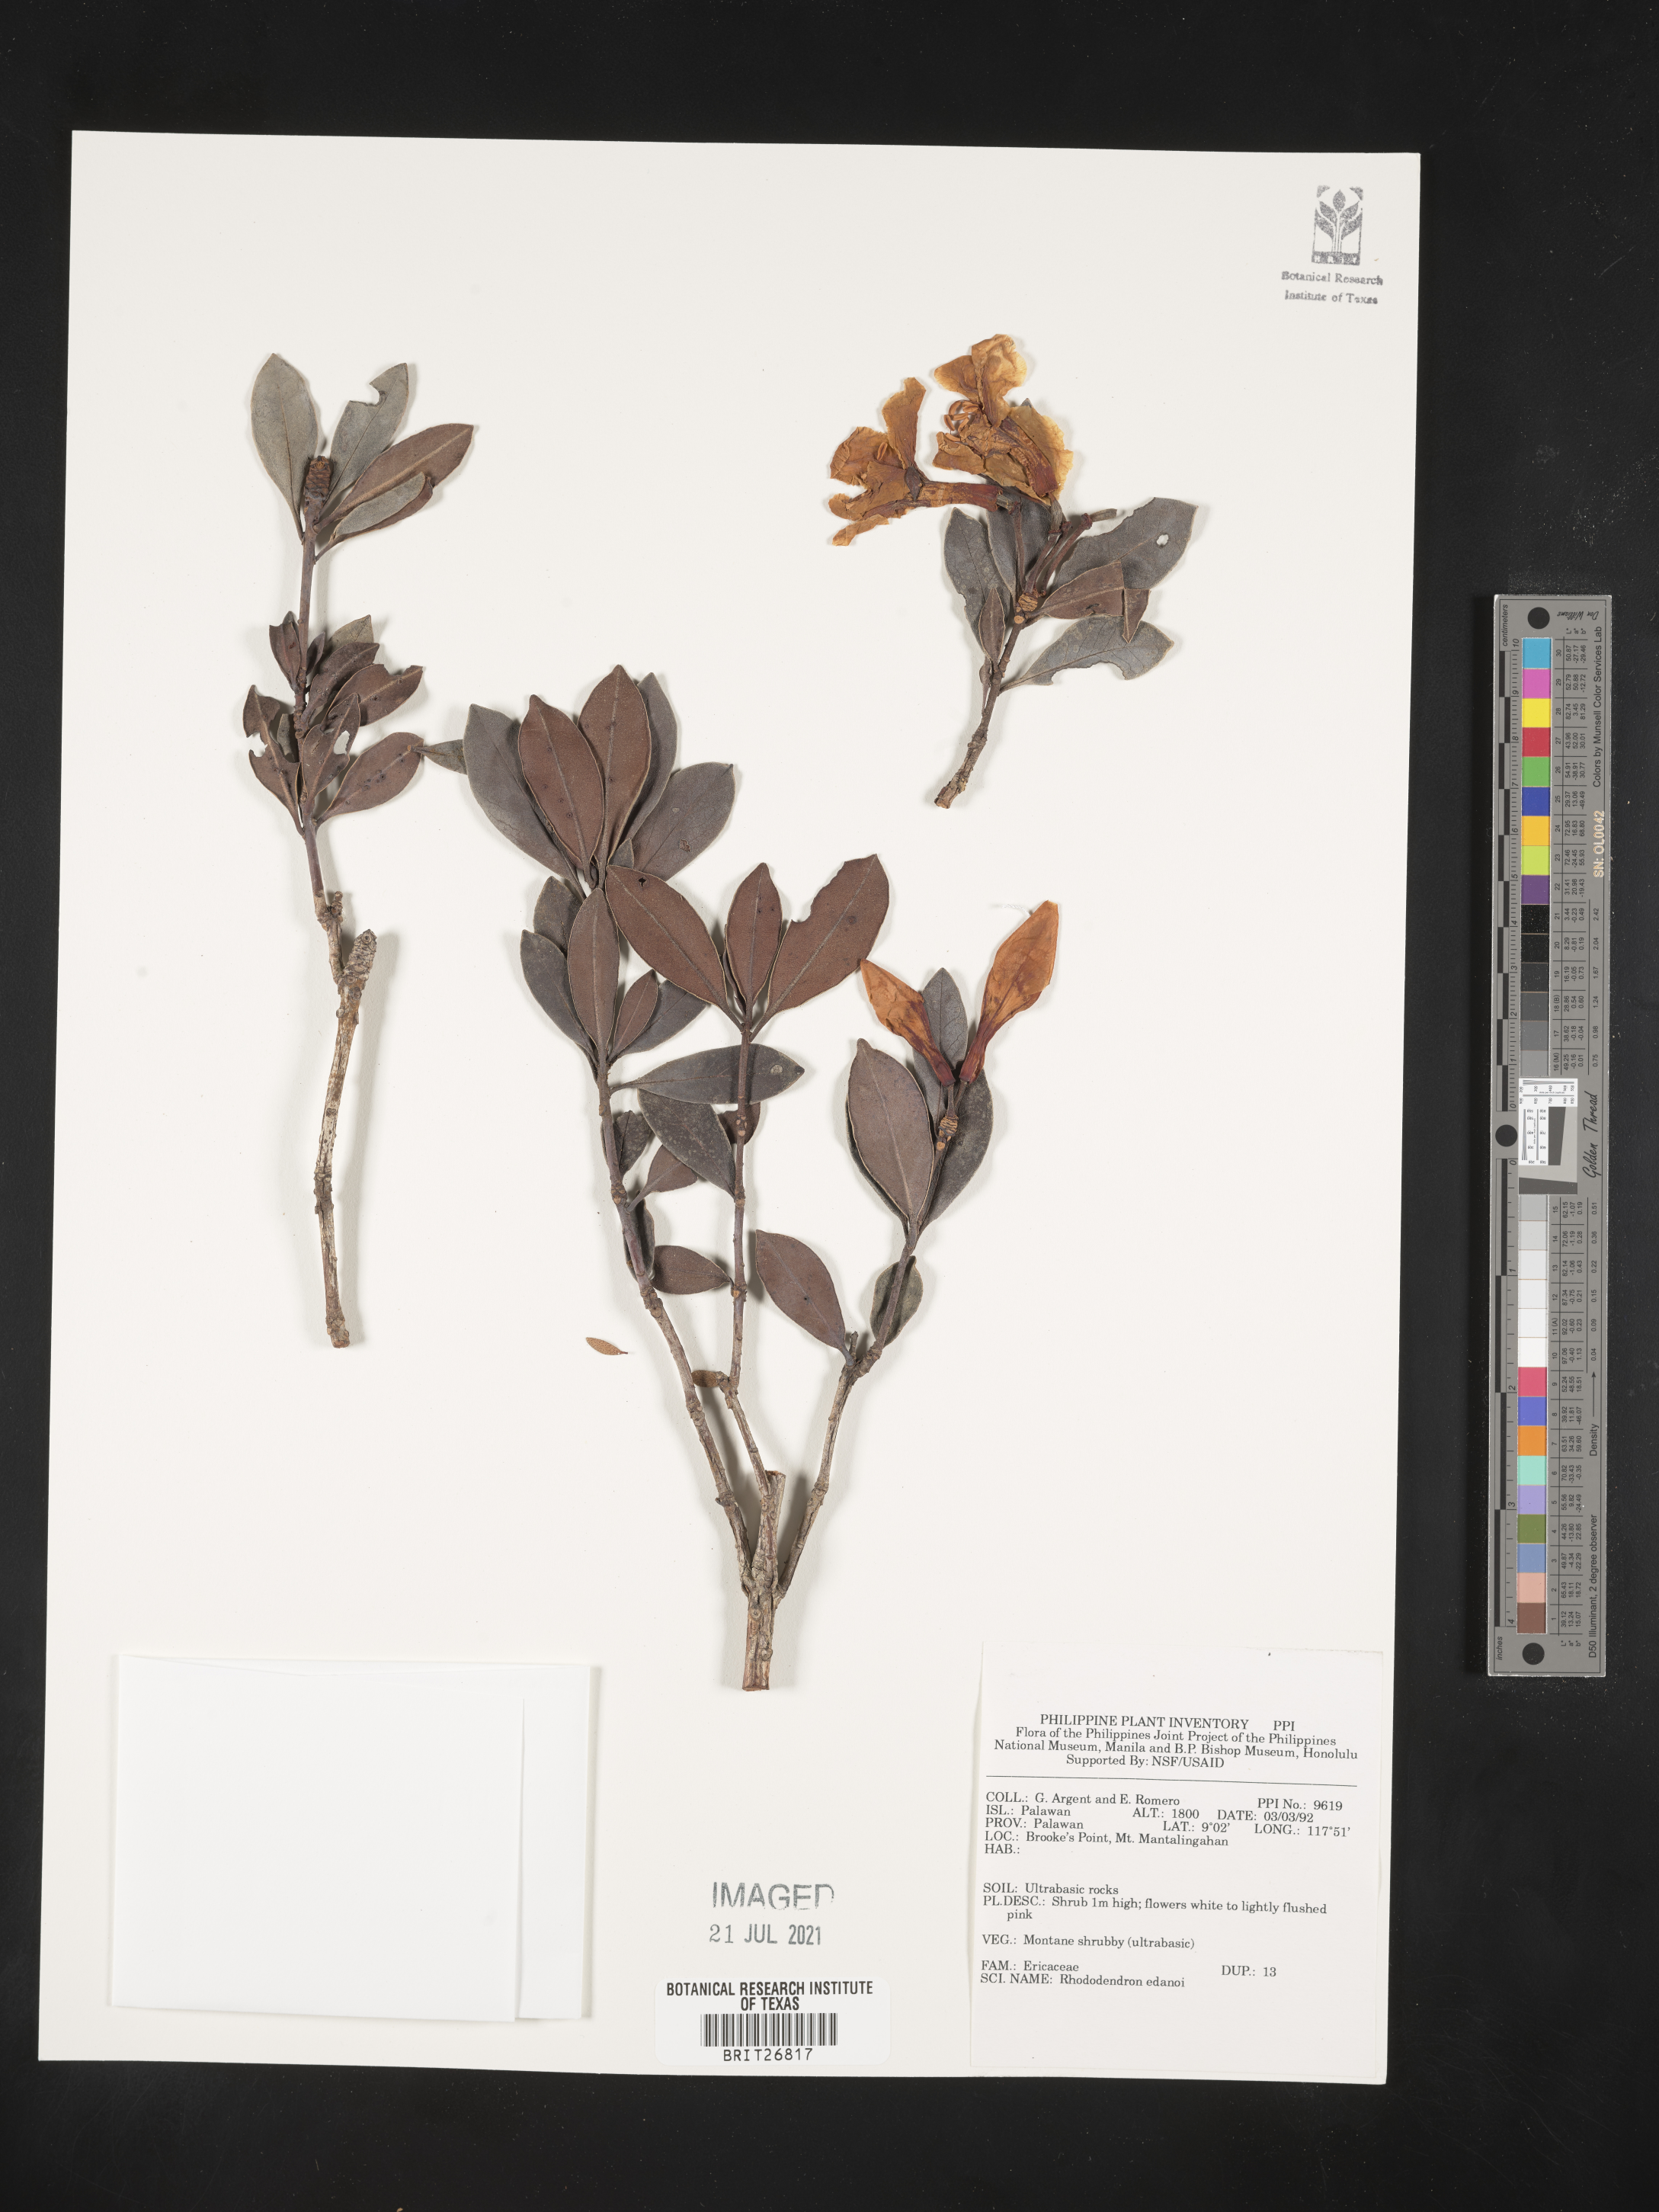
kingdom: Plantae
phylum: Tracheophyta
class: Magnoliopsida
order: Ericales
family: Ericaceae
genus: Rhododendron
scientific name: Rhododendron edanoi
